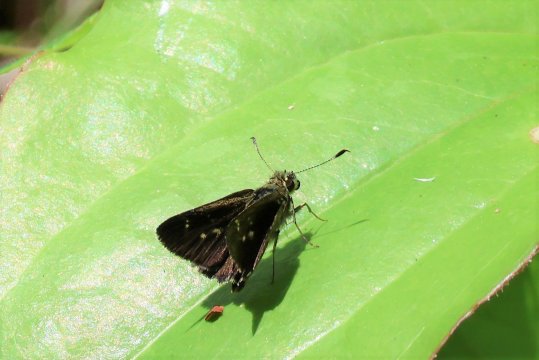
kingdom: Animalia
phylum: Arthropoda
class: Insecta
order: Lepidoptera
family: Hesperiidae
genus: Mastor
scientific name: Mastor hegon
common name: Pepper and Salt Skipper
